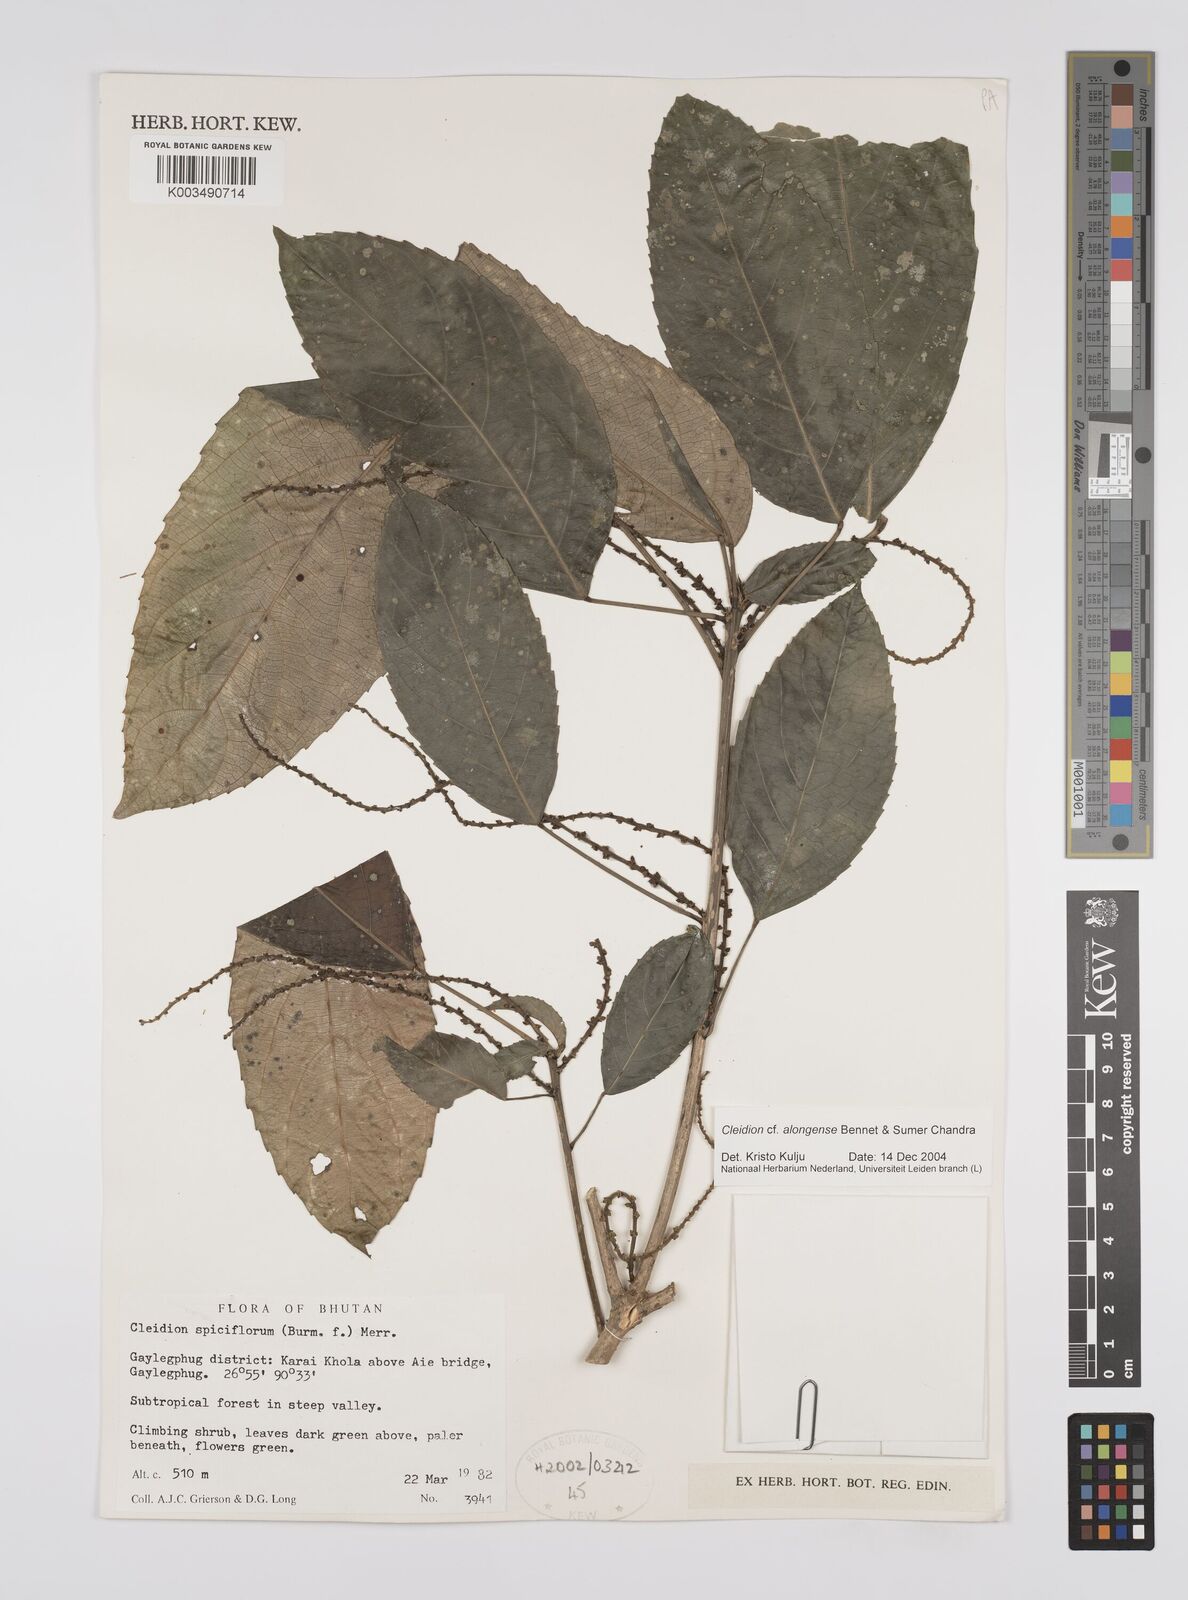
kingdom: Plantae
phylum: Tracheophyta
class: Magnoliopsida
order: Malpighiales
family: Euphorbiaceae
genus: Cleidion
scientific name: Cleidion javanicum
